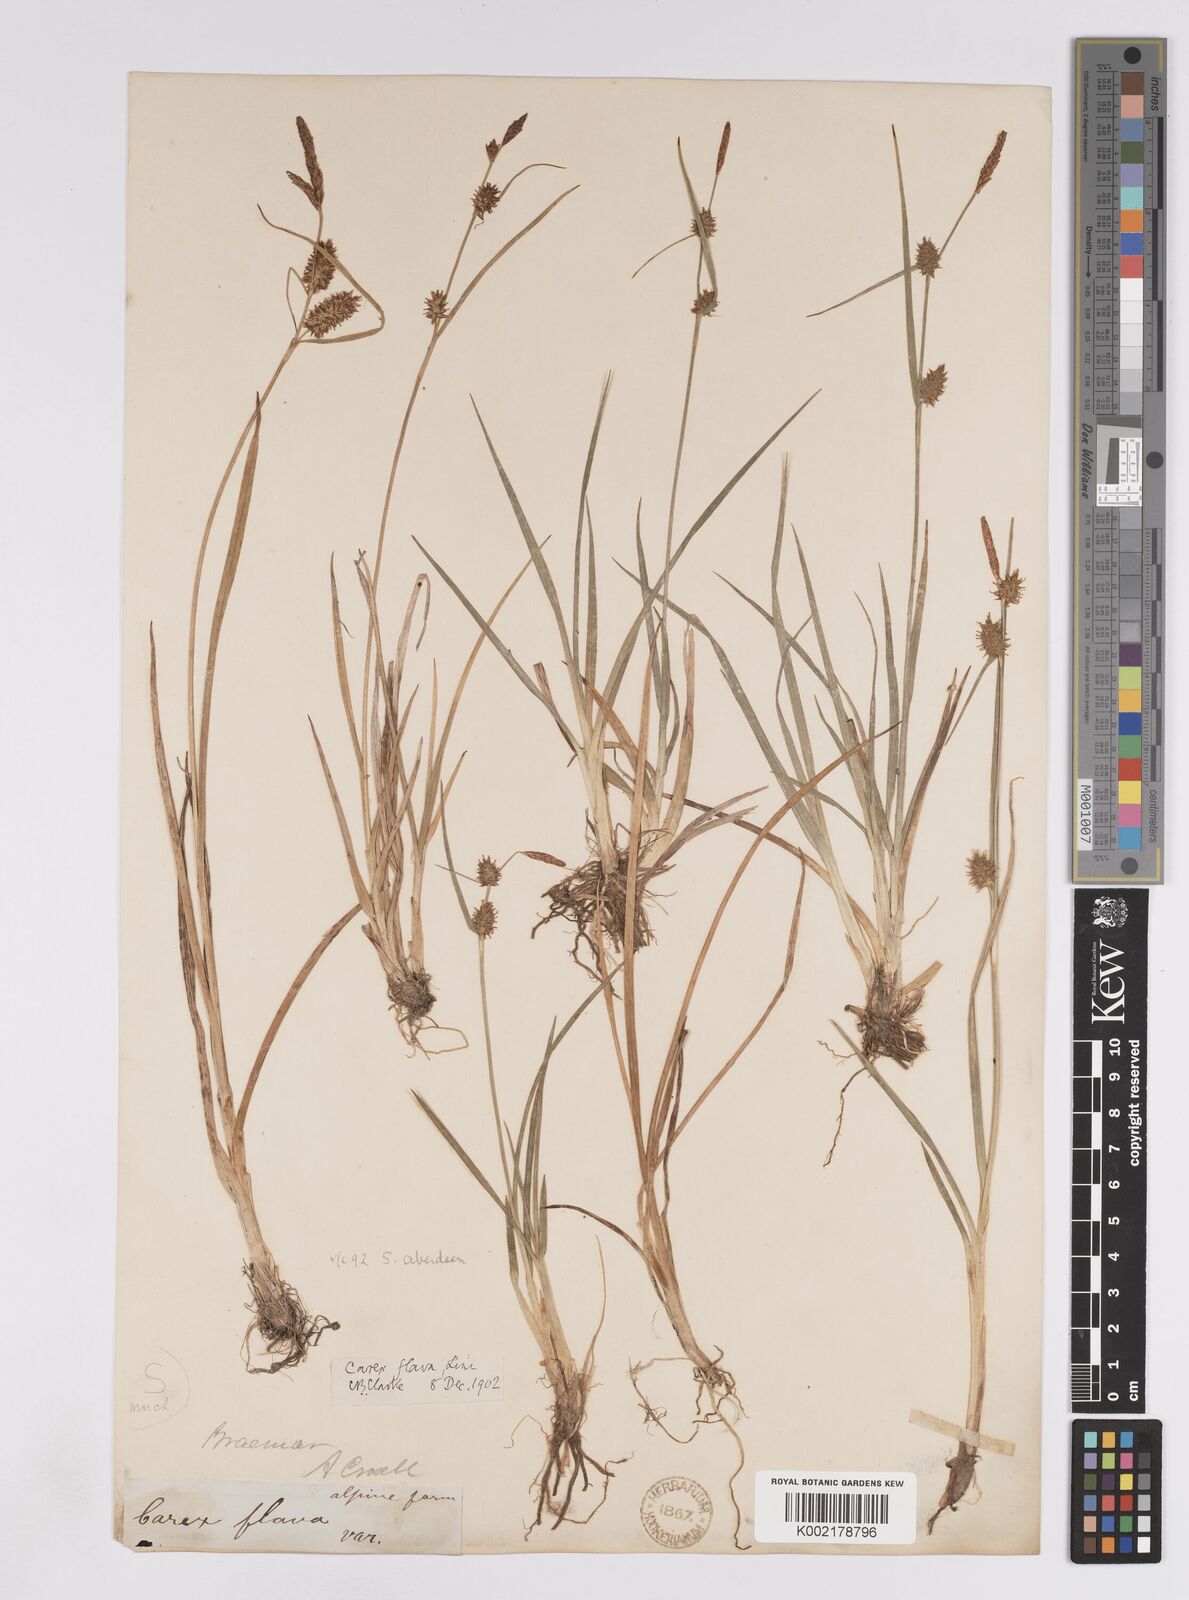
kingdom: Plantae
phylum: Tracheophyta
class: Liliopsida
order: Poales
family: Cyperaceae
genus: Carex
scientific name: Carex lepidocarpa
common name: Long-stalked yellow-sedge
